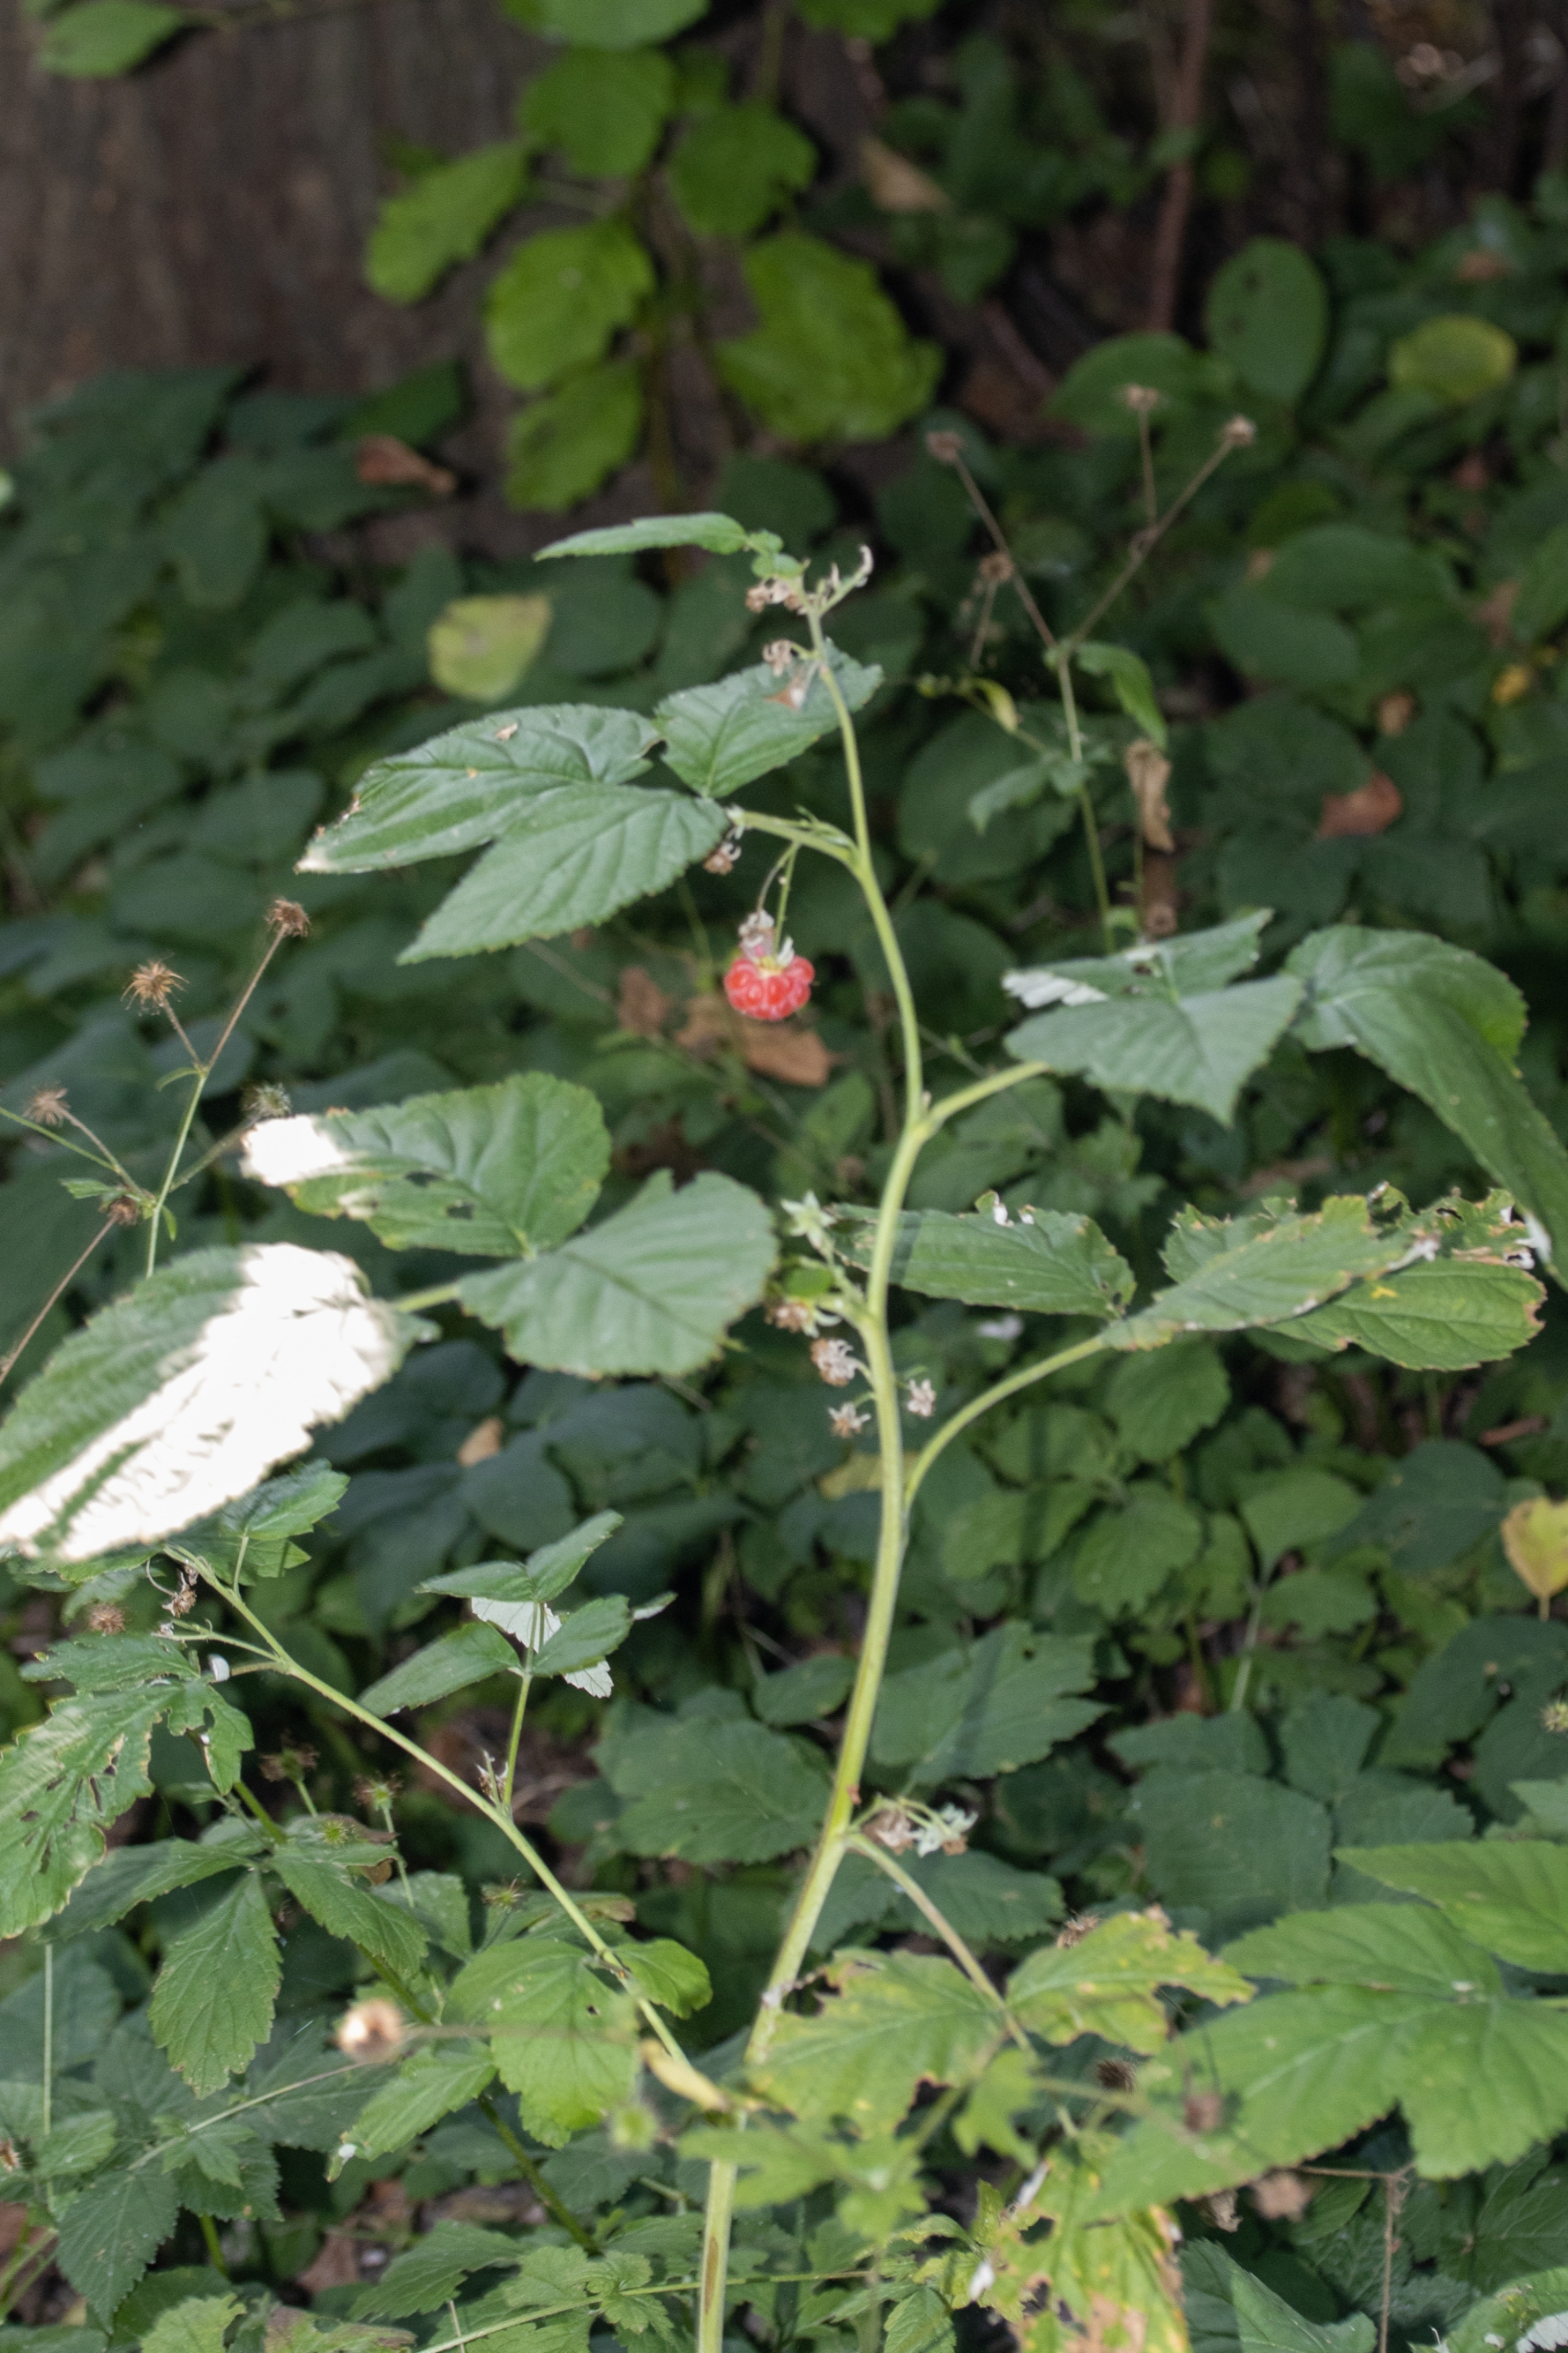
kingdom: Plantae
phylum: Tracheophyta
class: Magnoliopsida
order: Rosales
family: Rosaceae
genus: Rubus
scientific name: Rubus idaeus
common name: Hindbær
